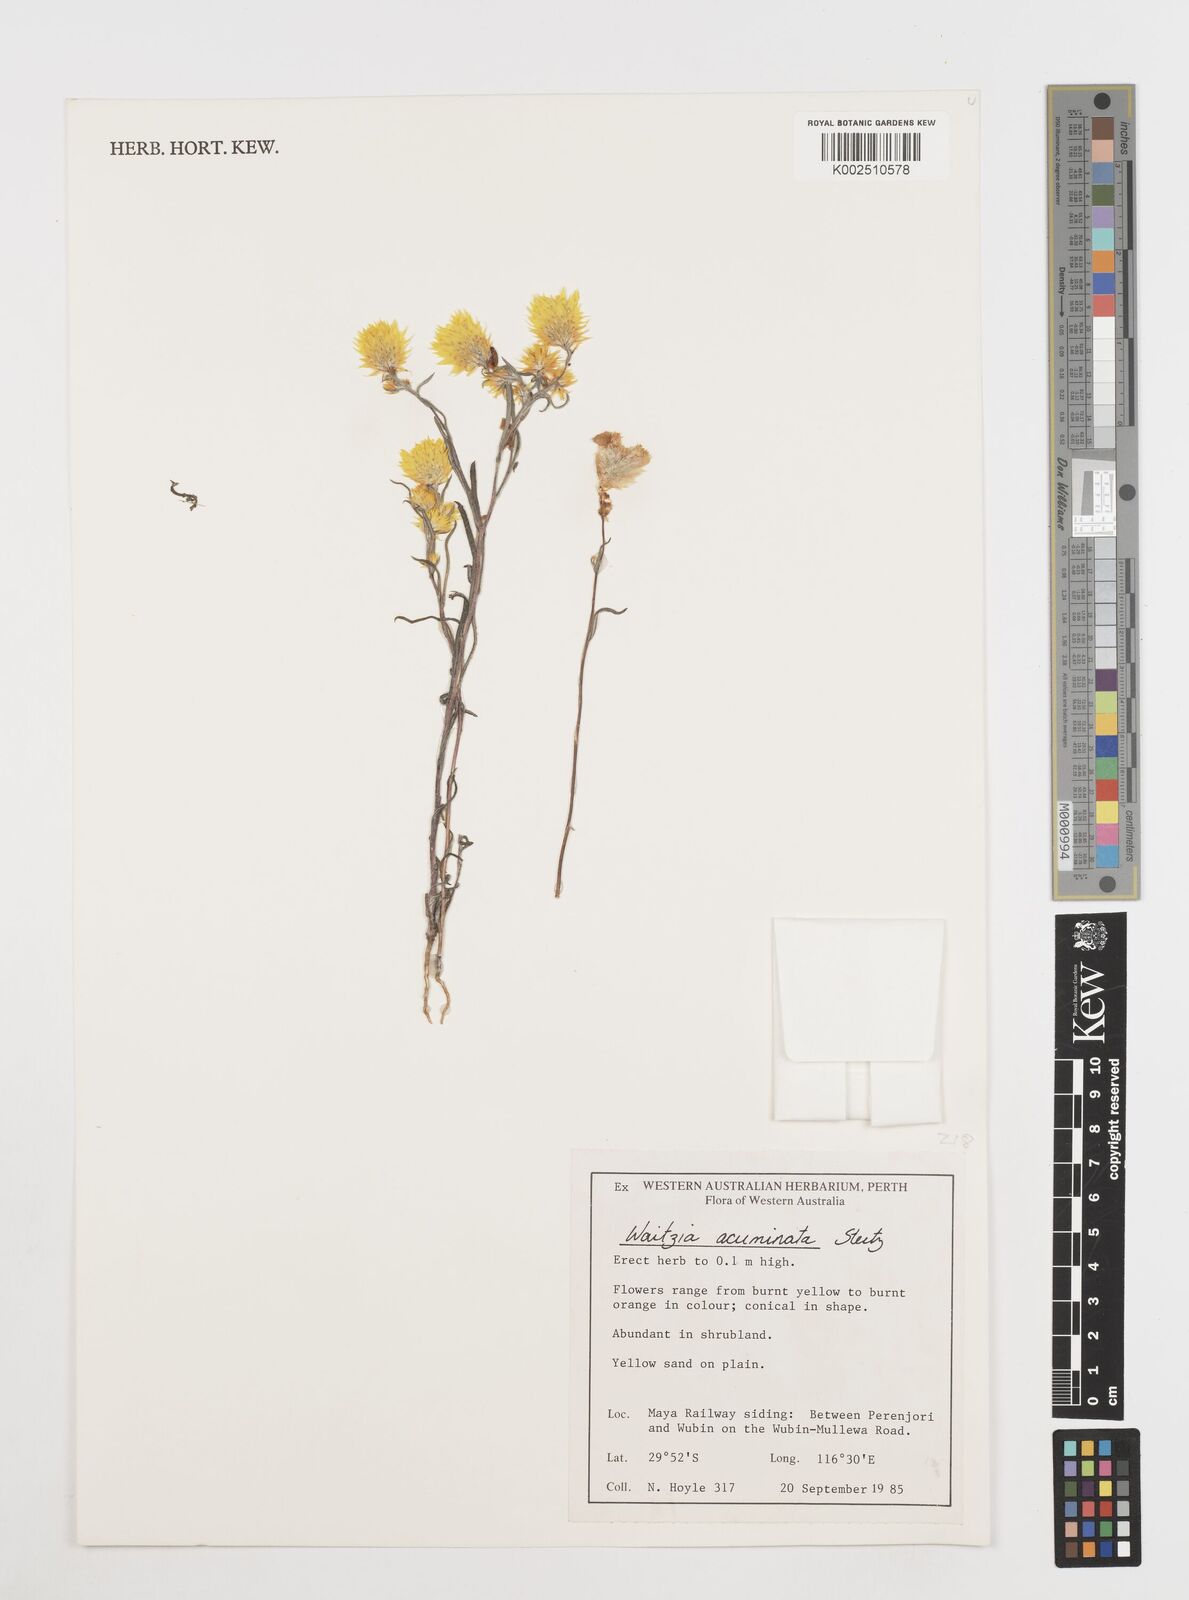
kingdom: Plantae
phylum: Tracheophyta
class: Magnoliopsida
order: Asterales
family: Asteraceae
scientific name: Asteraceae
